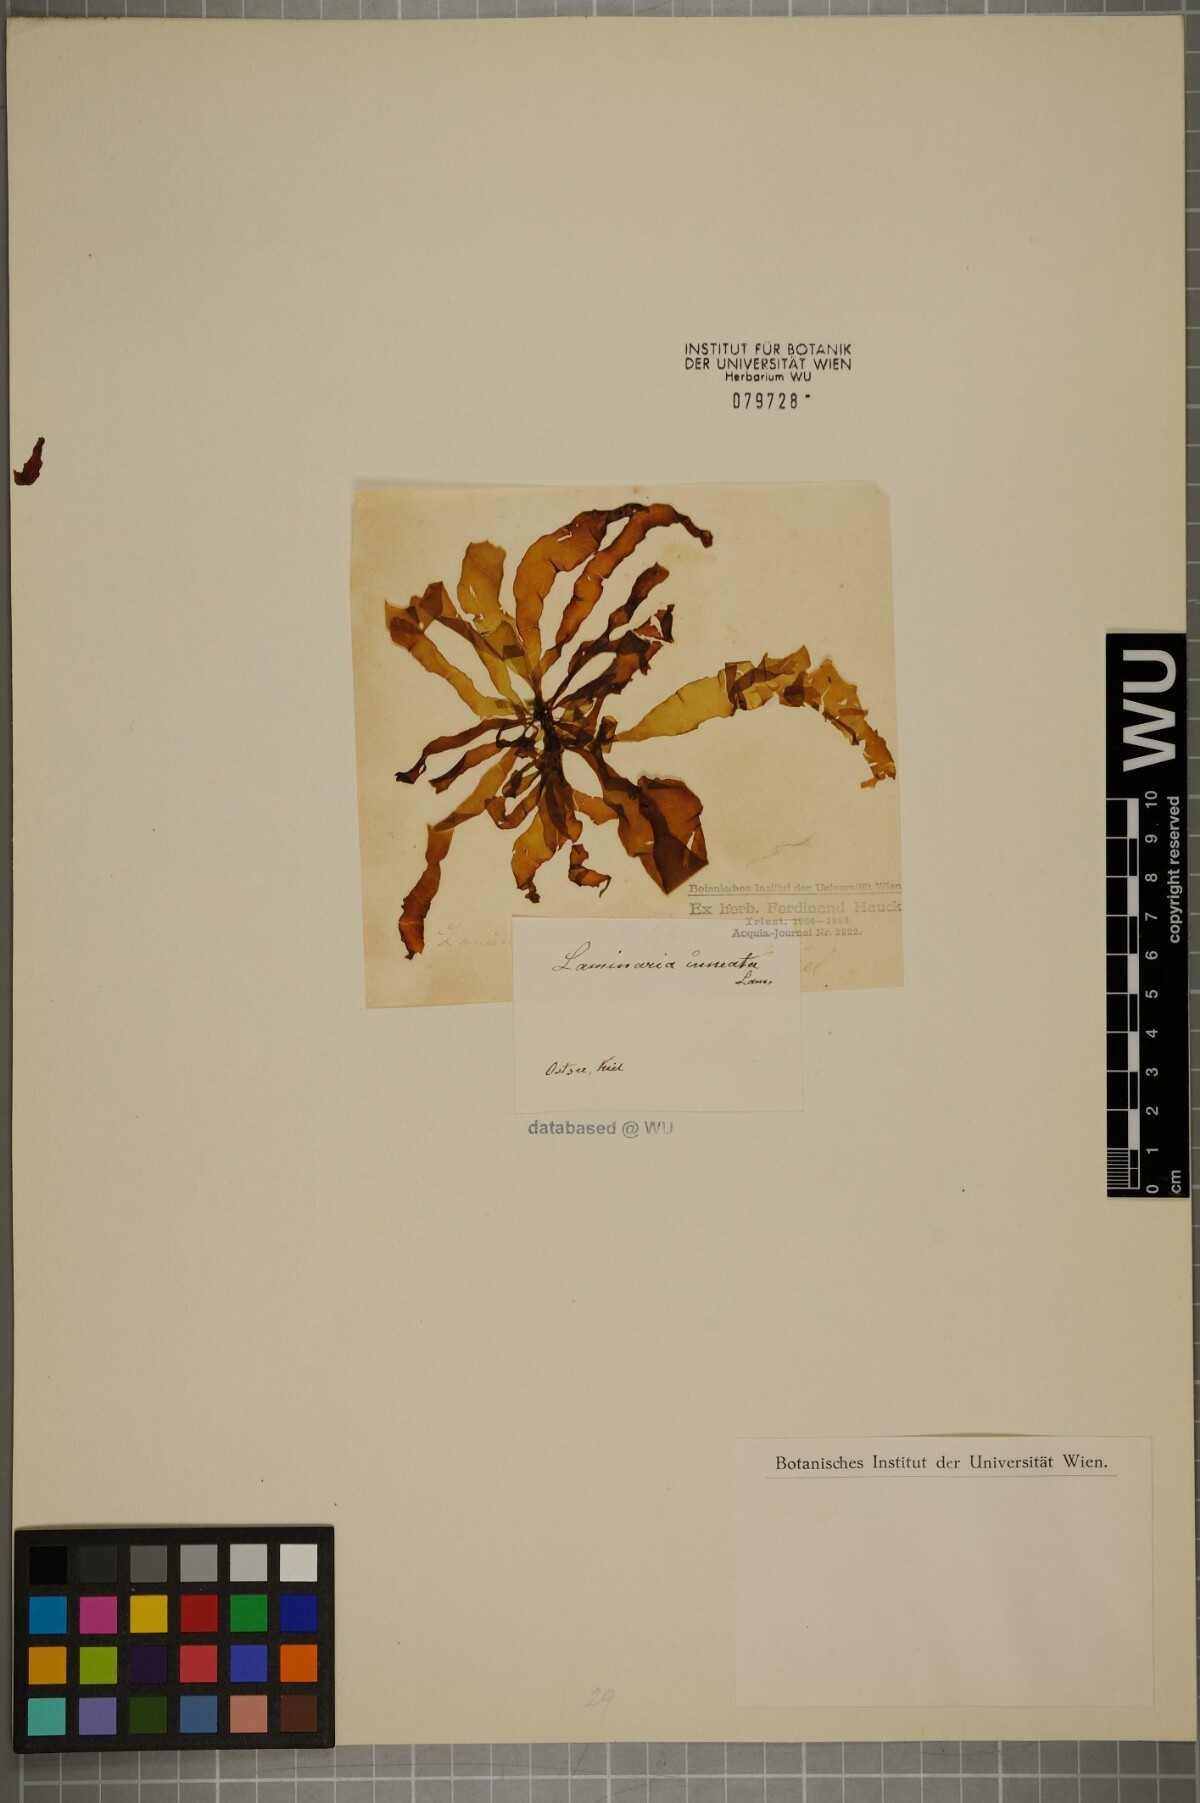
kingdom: Chromista
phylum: Ochrophyta
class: Phaeophyceae
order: Laminariales
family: Laminariaceae
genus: Laminaria
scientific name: Laminaria
